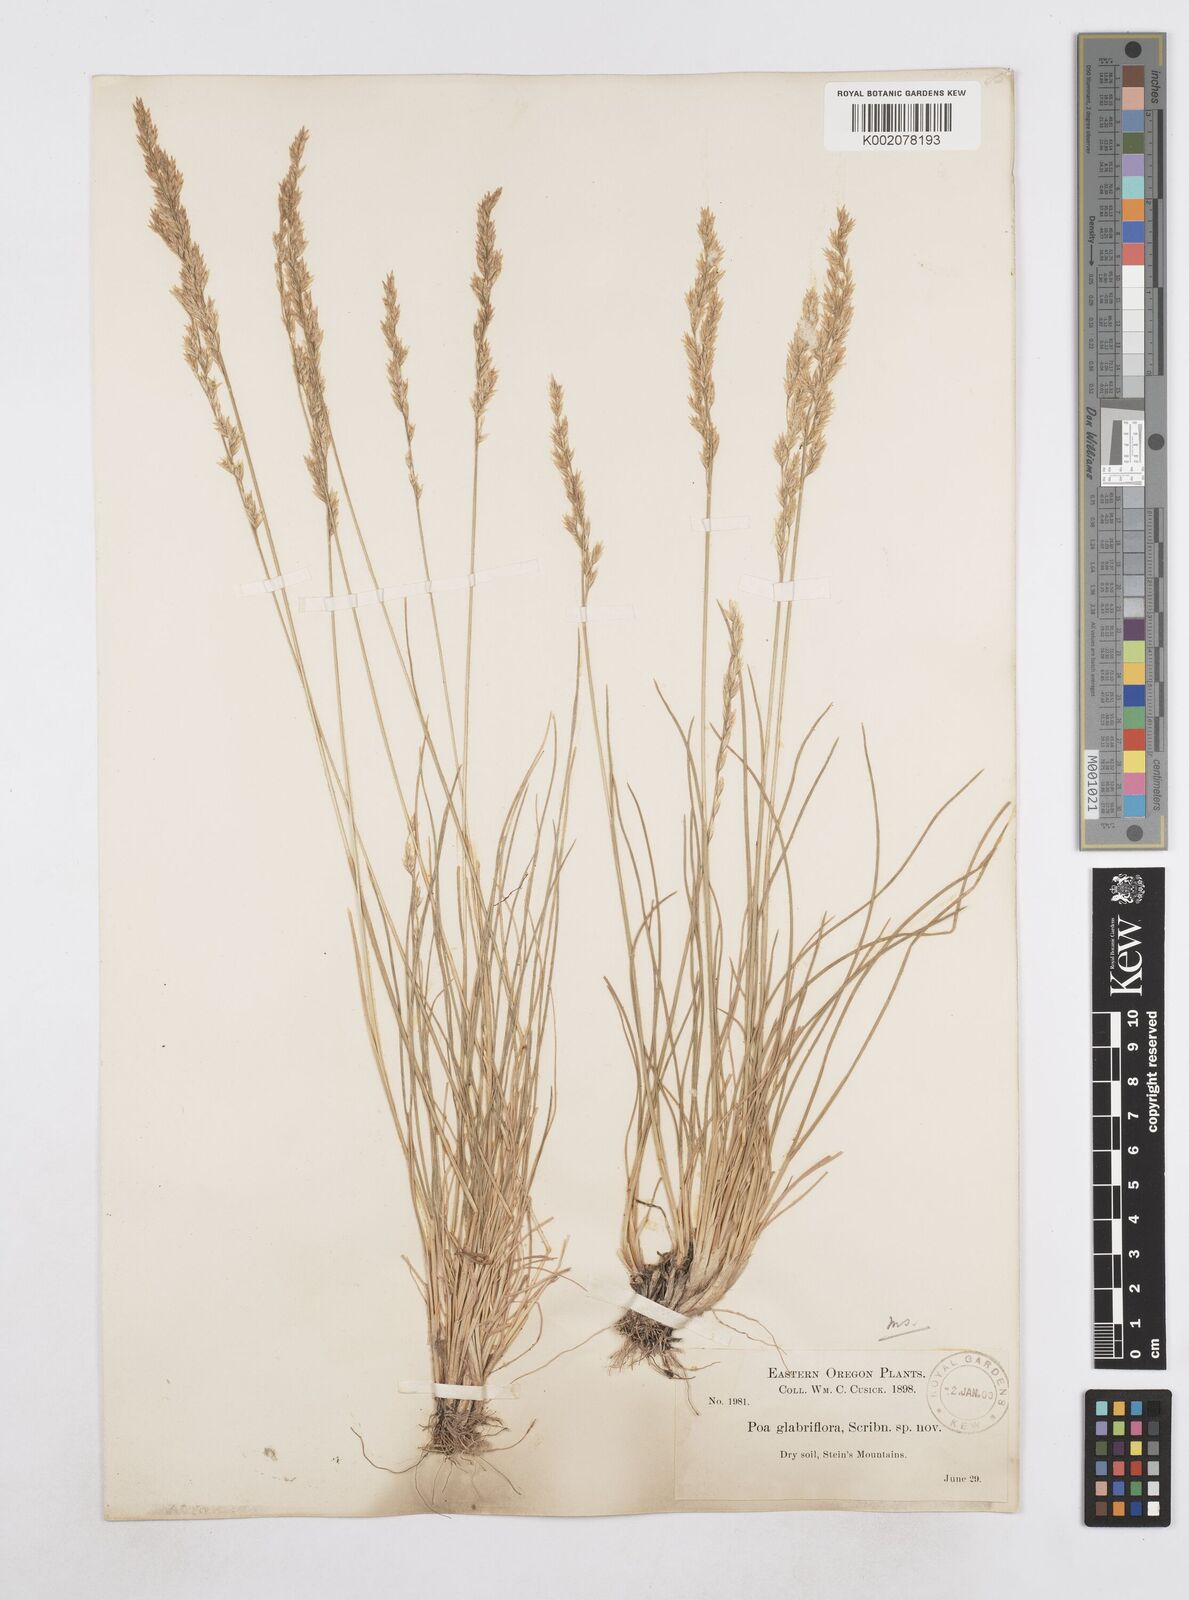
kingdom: Plantae
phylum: Tracheophyta
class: Liliopsida
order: Poales
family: Poaceae
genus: Poa
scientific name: Poa bactriana
